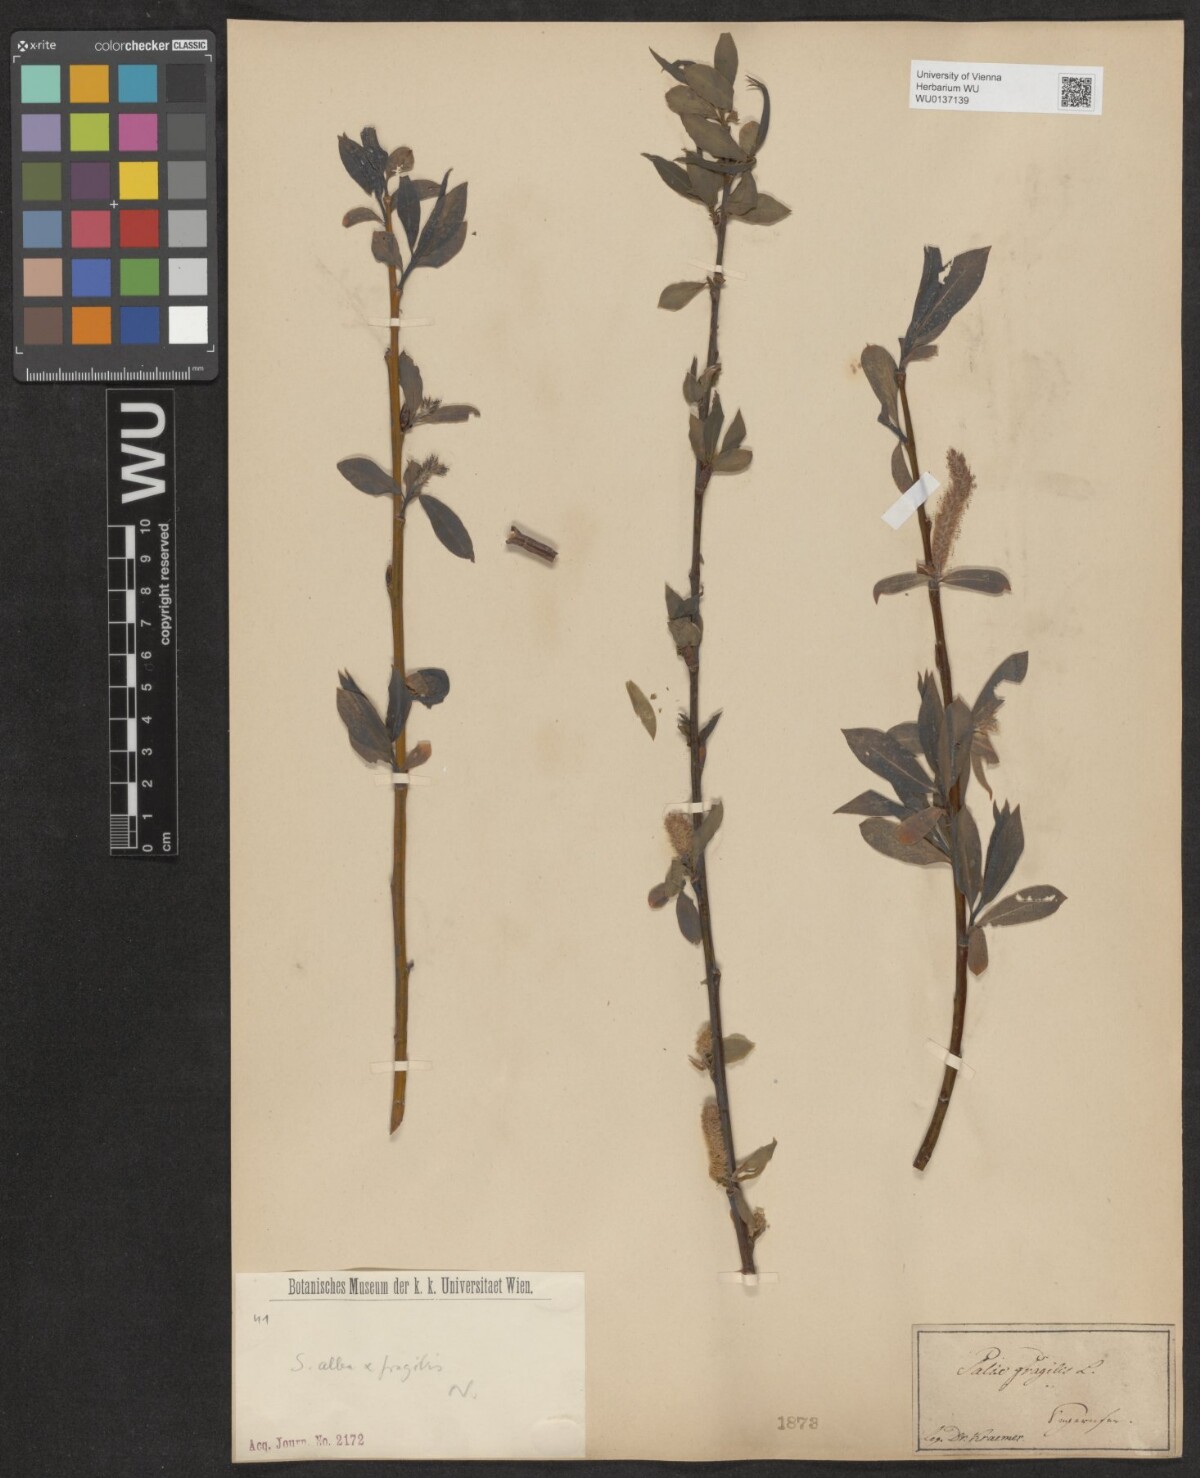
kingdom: Plantae
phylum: Tracheophyta
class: Magnoliopsida
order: Malpighiales
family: Salicaceae
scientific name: Salicaceae
